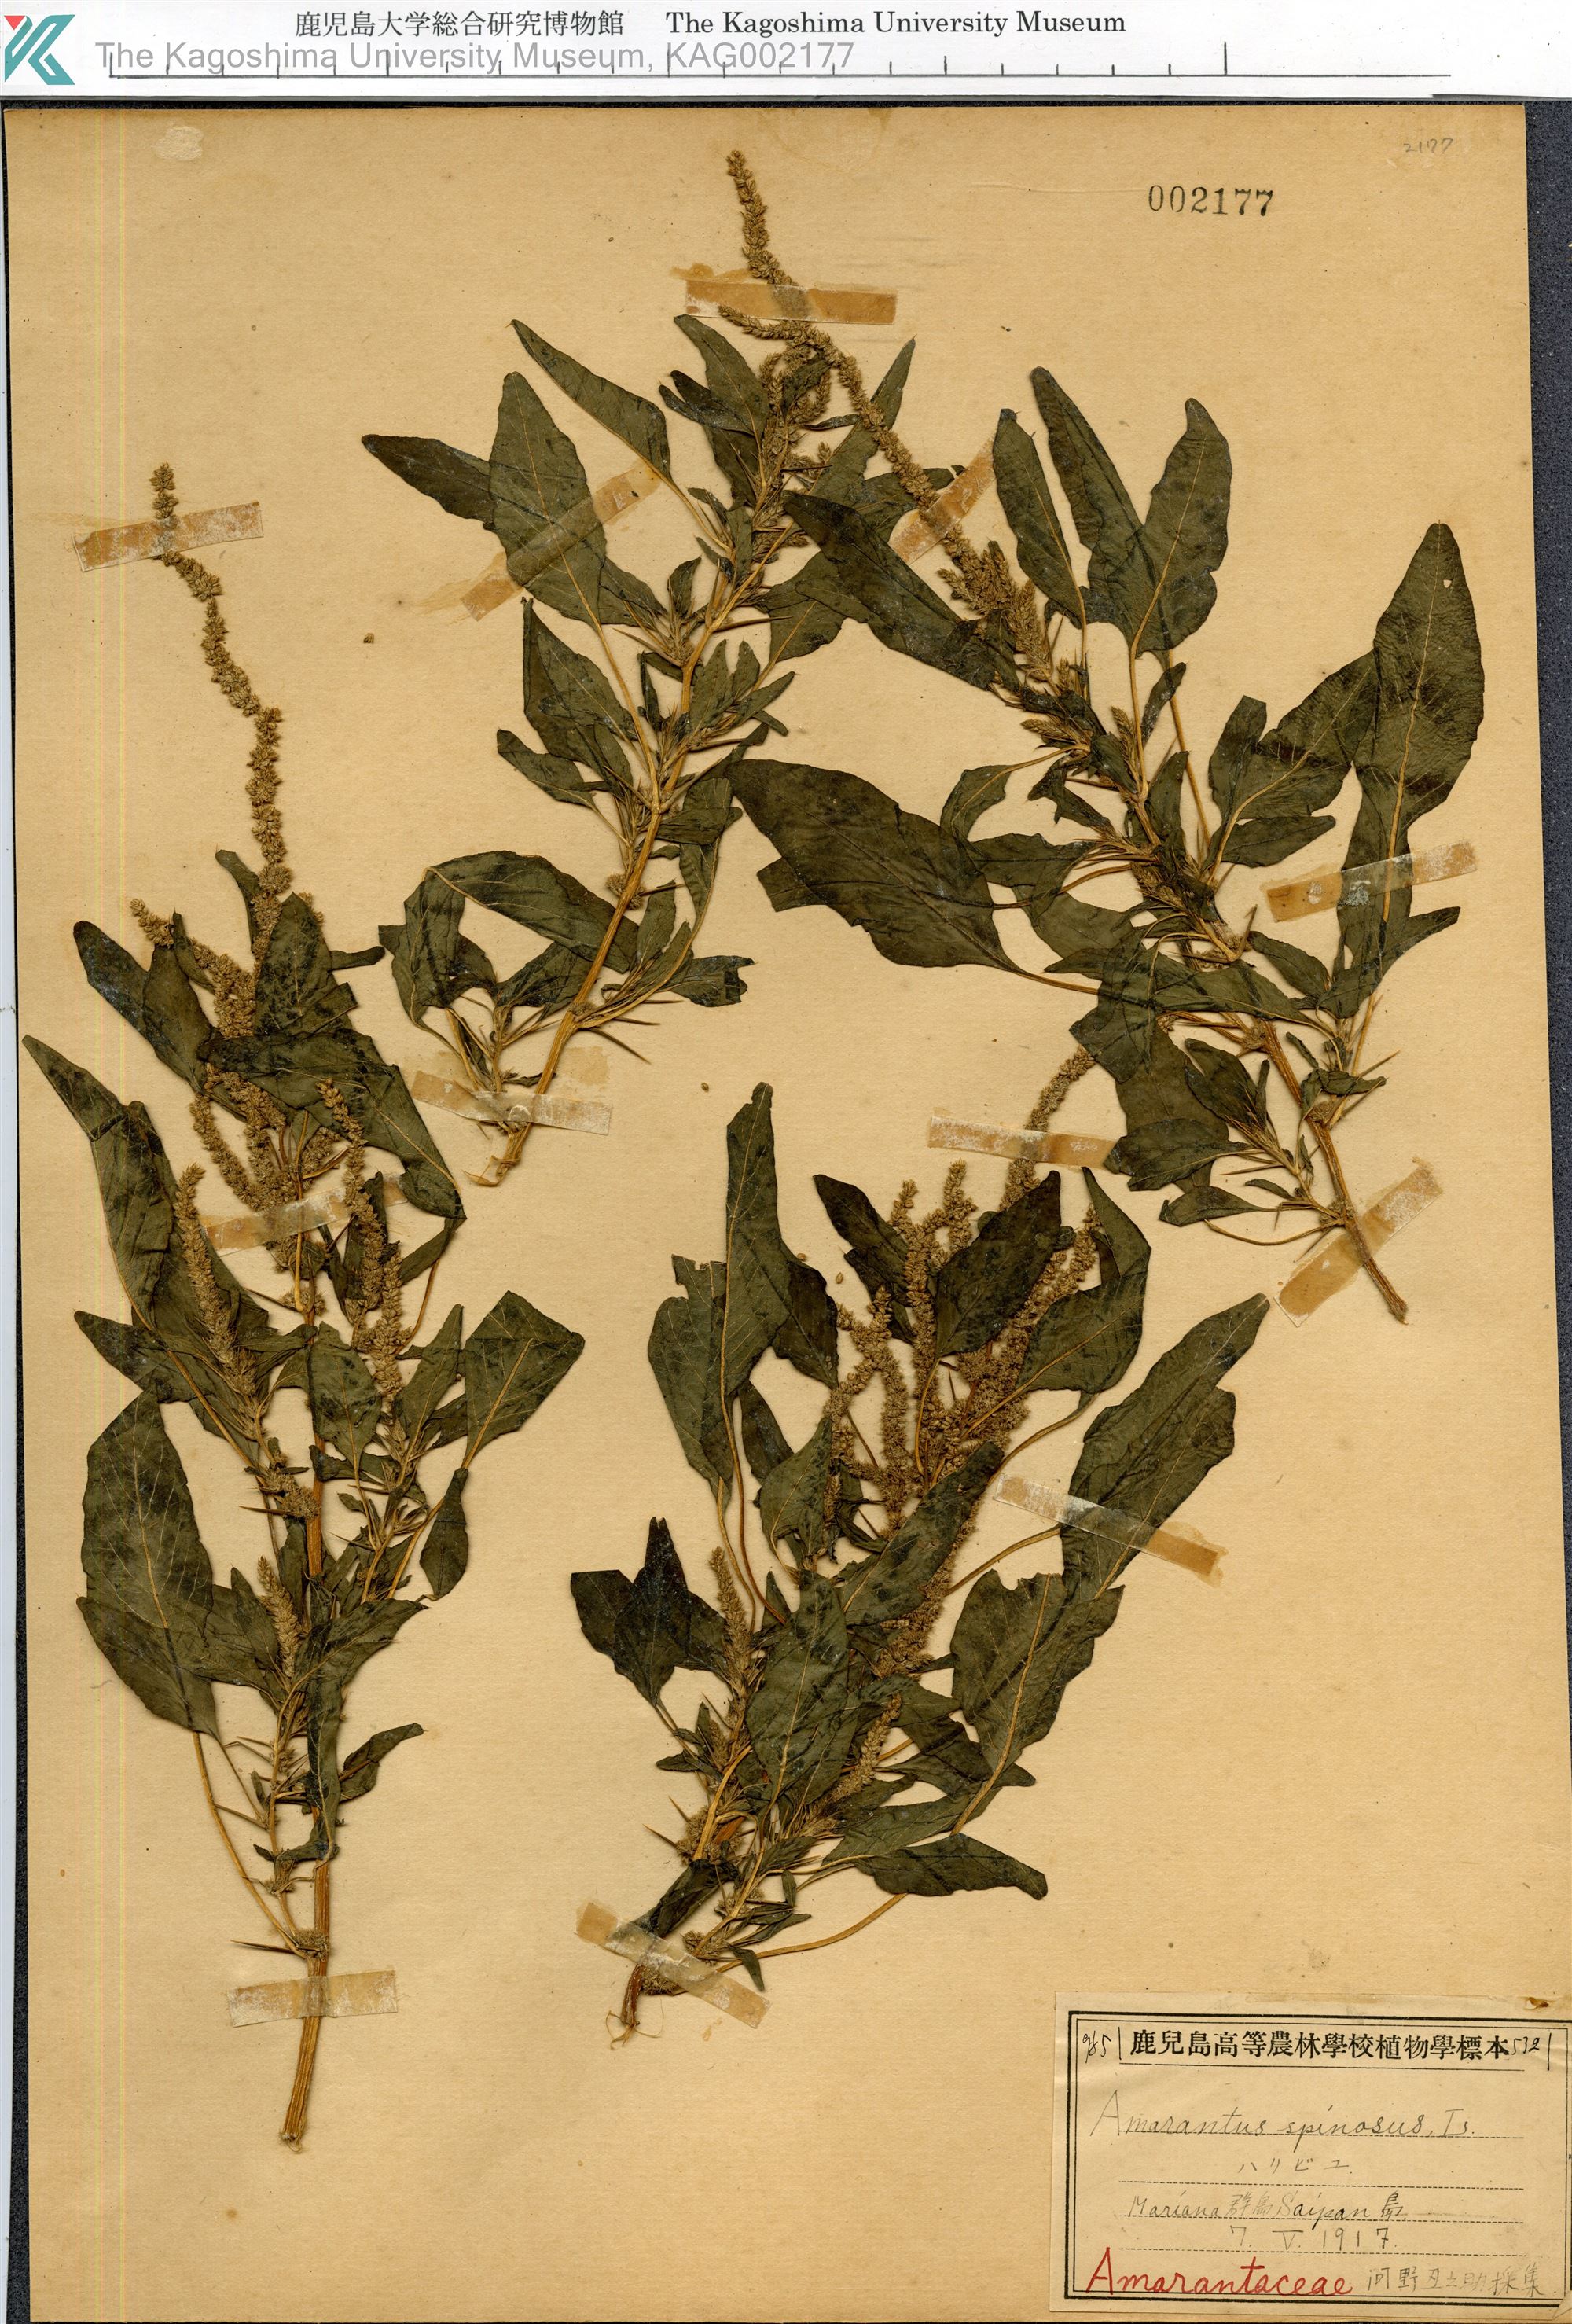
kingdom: Plantae
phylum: Tracheophyta
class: Magnoliopsida
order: Caryophyllales
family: Amaranthaceae
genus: Amaranthus
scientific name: Amaranthus spinosus
